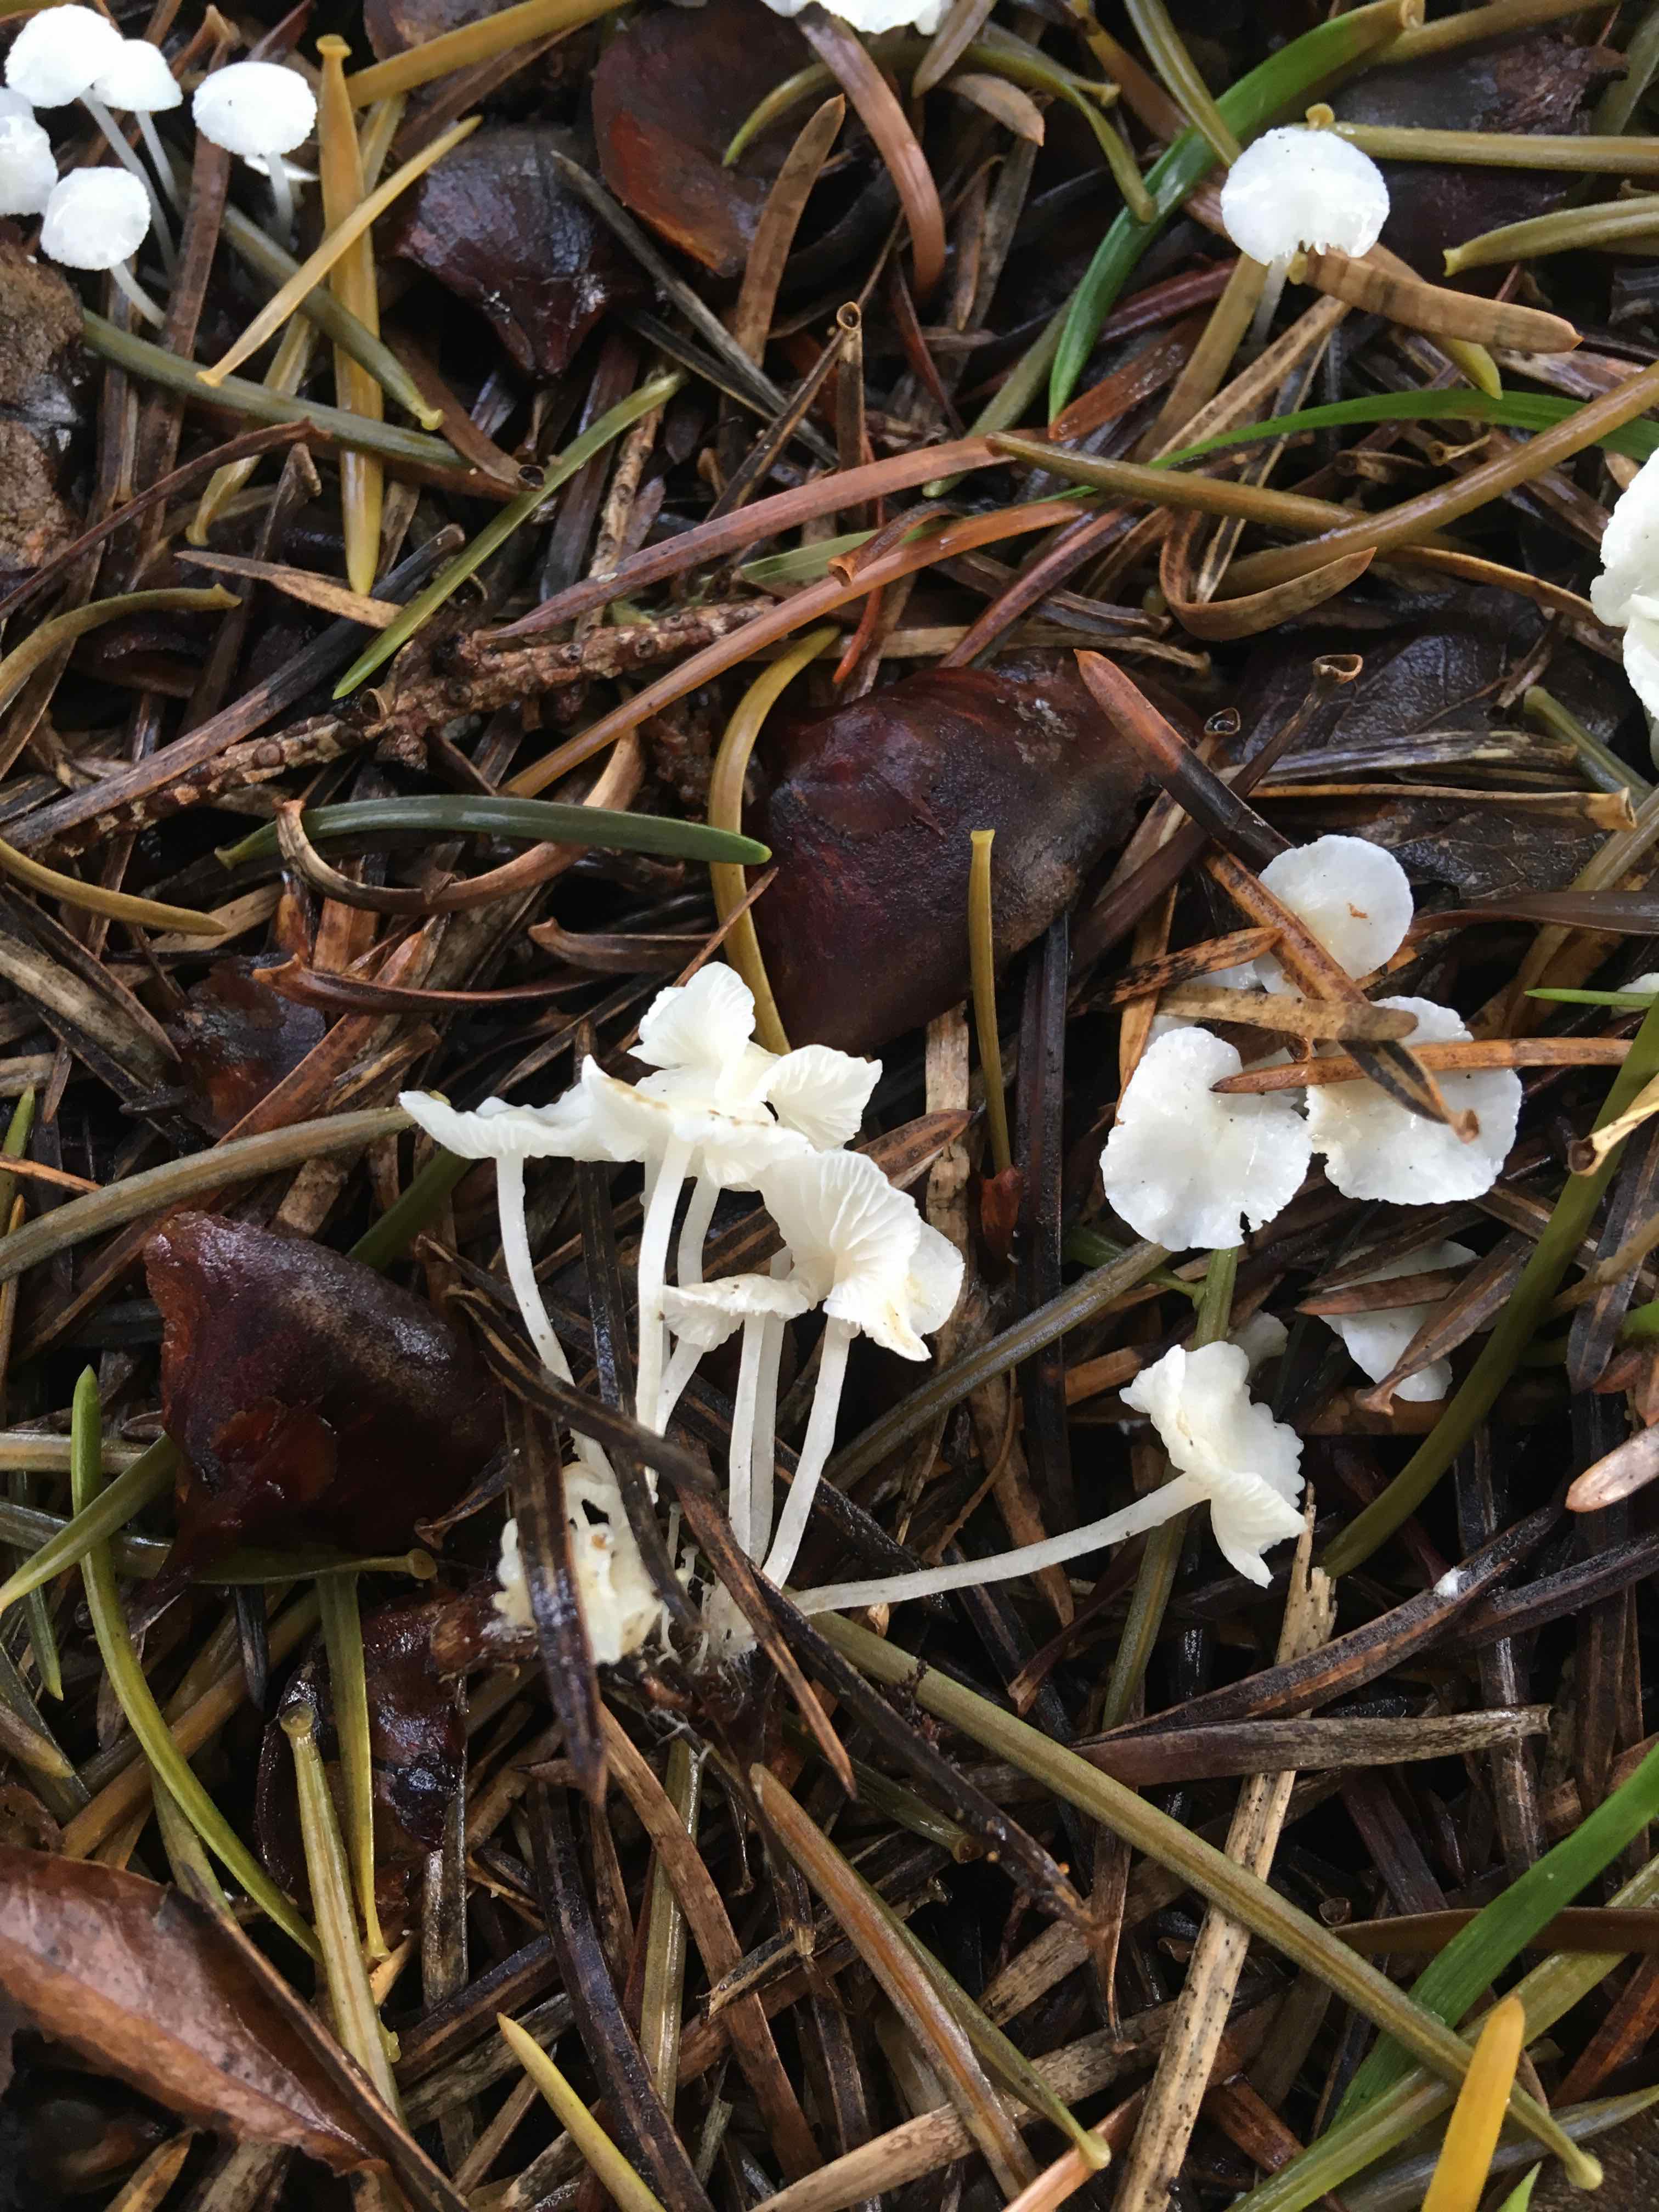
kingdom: Fungi
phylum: Basidiomycota
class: Agaricomycetes
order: Agaricales
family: Mycenaceae
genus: Hemimycena
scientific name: Hemimycena lactea
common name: mælkehvid huesvamp
